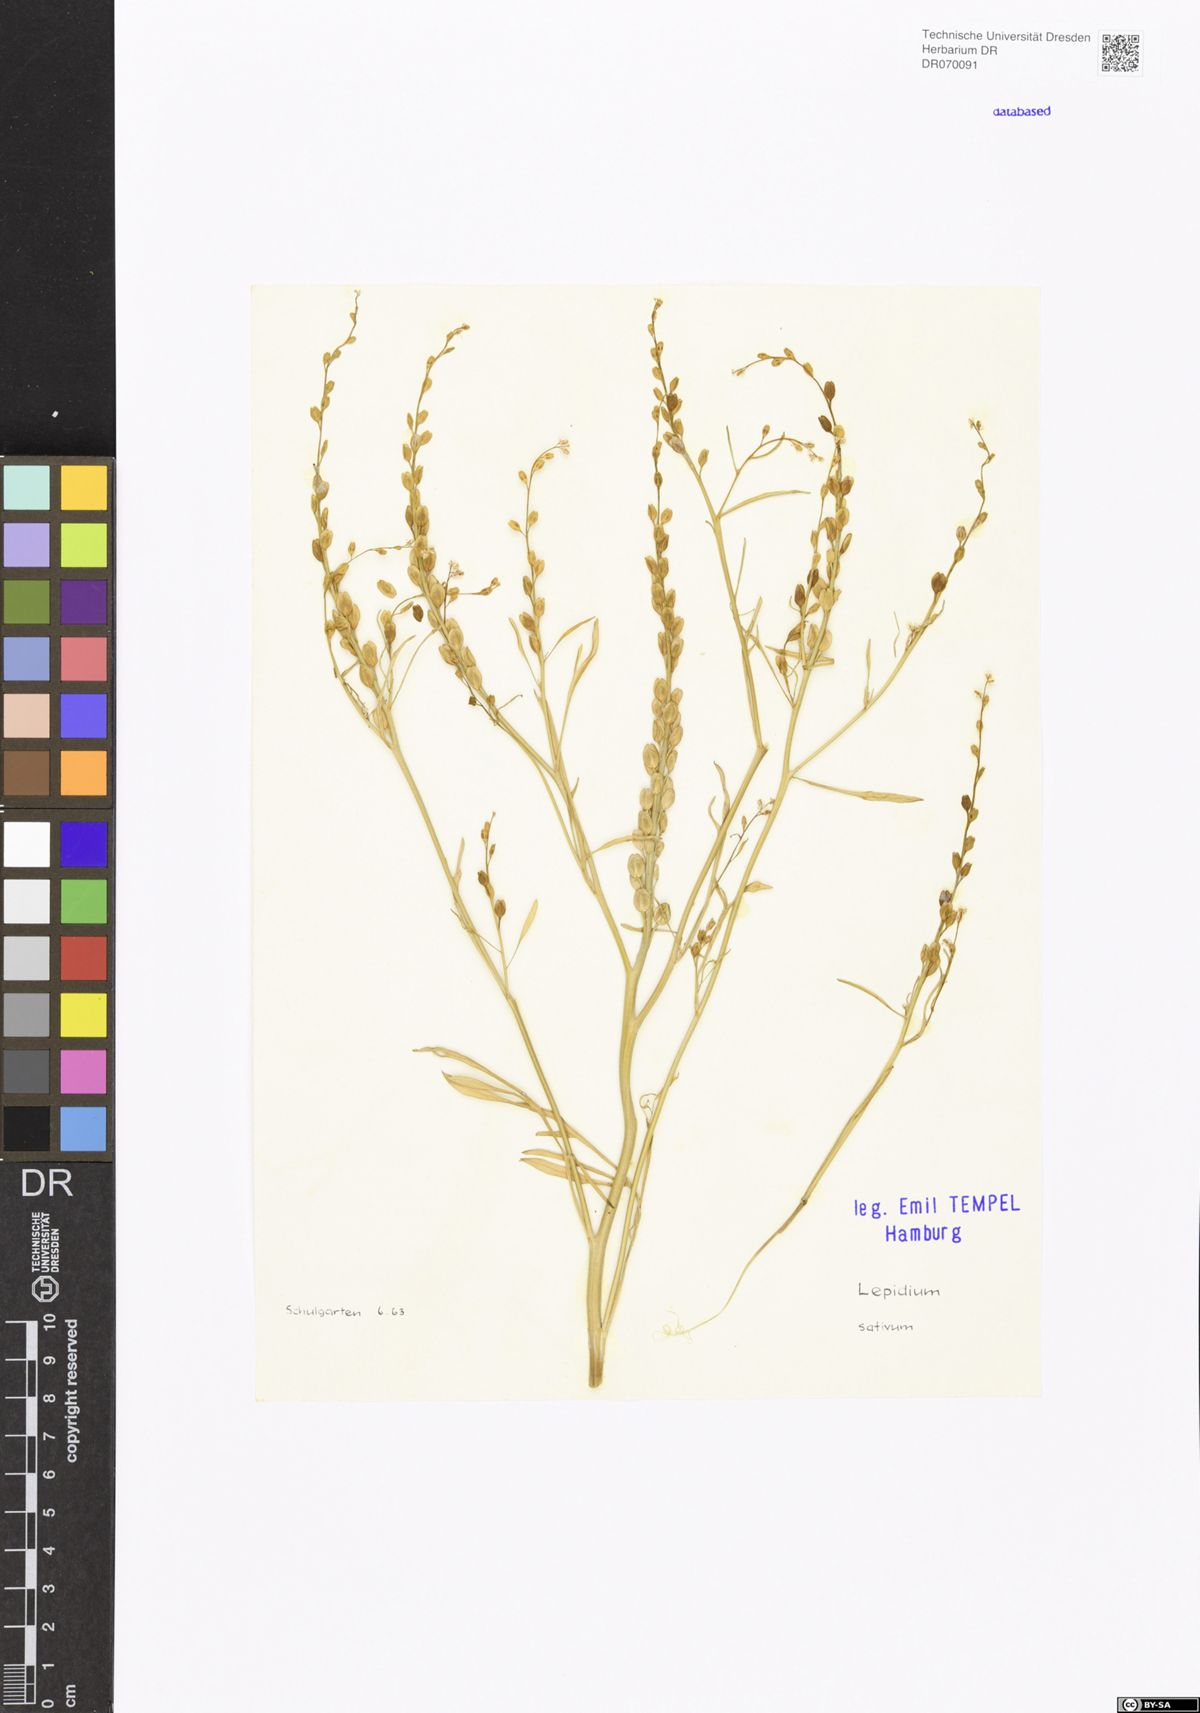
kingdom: Plantae
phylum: Tracheophyta
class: Magnoliopsida
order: Brassicales
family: Brassicaceae
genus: Lepidium
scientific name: Lepidium sativum
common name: Garden cress
